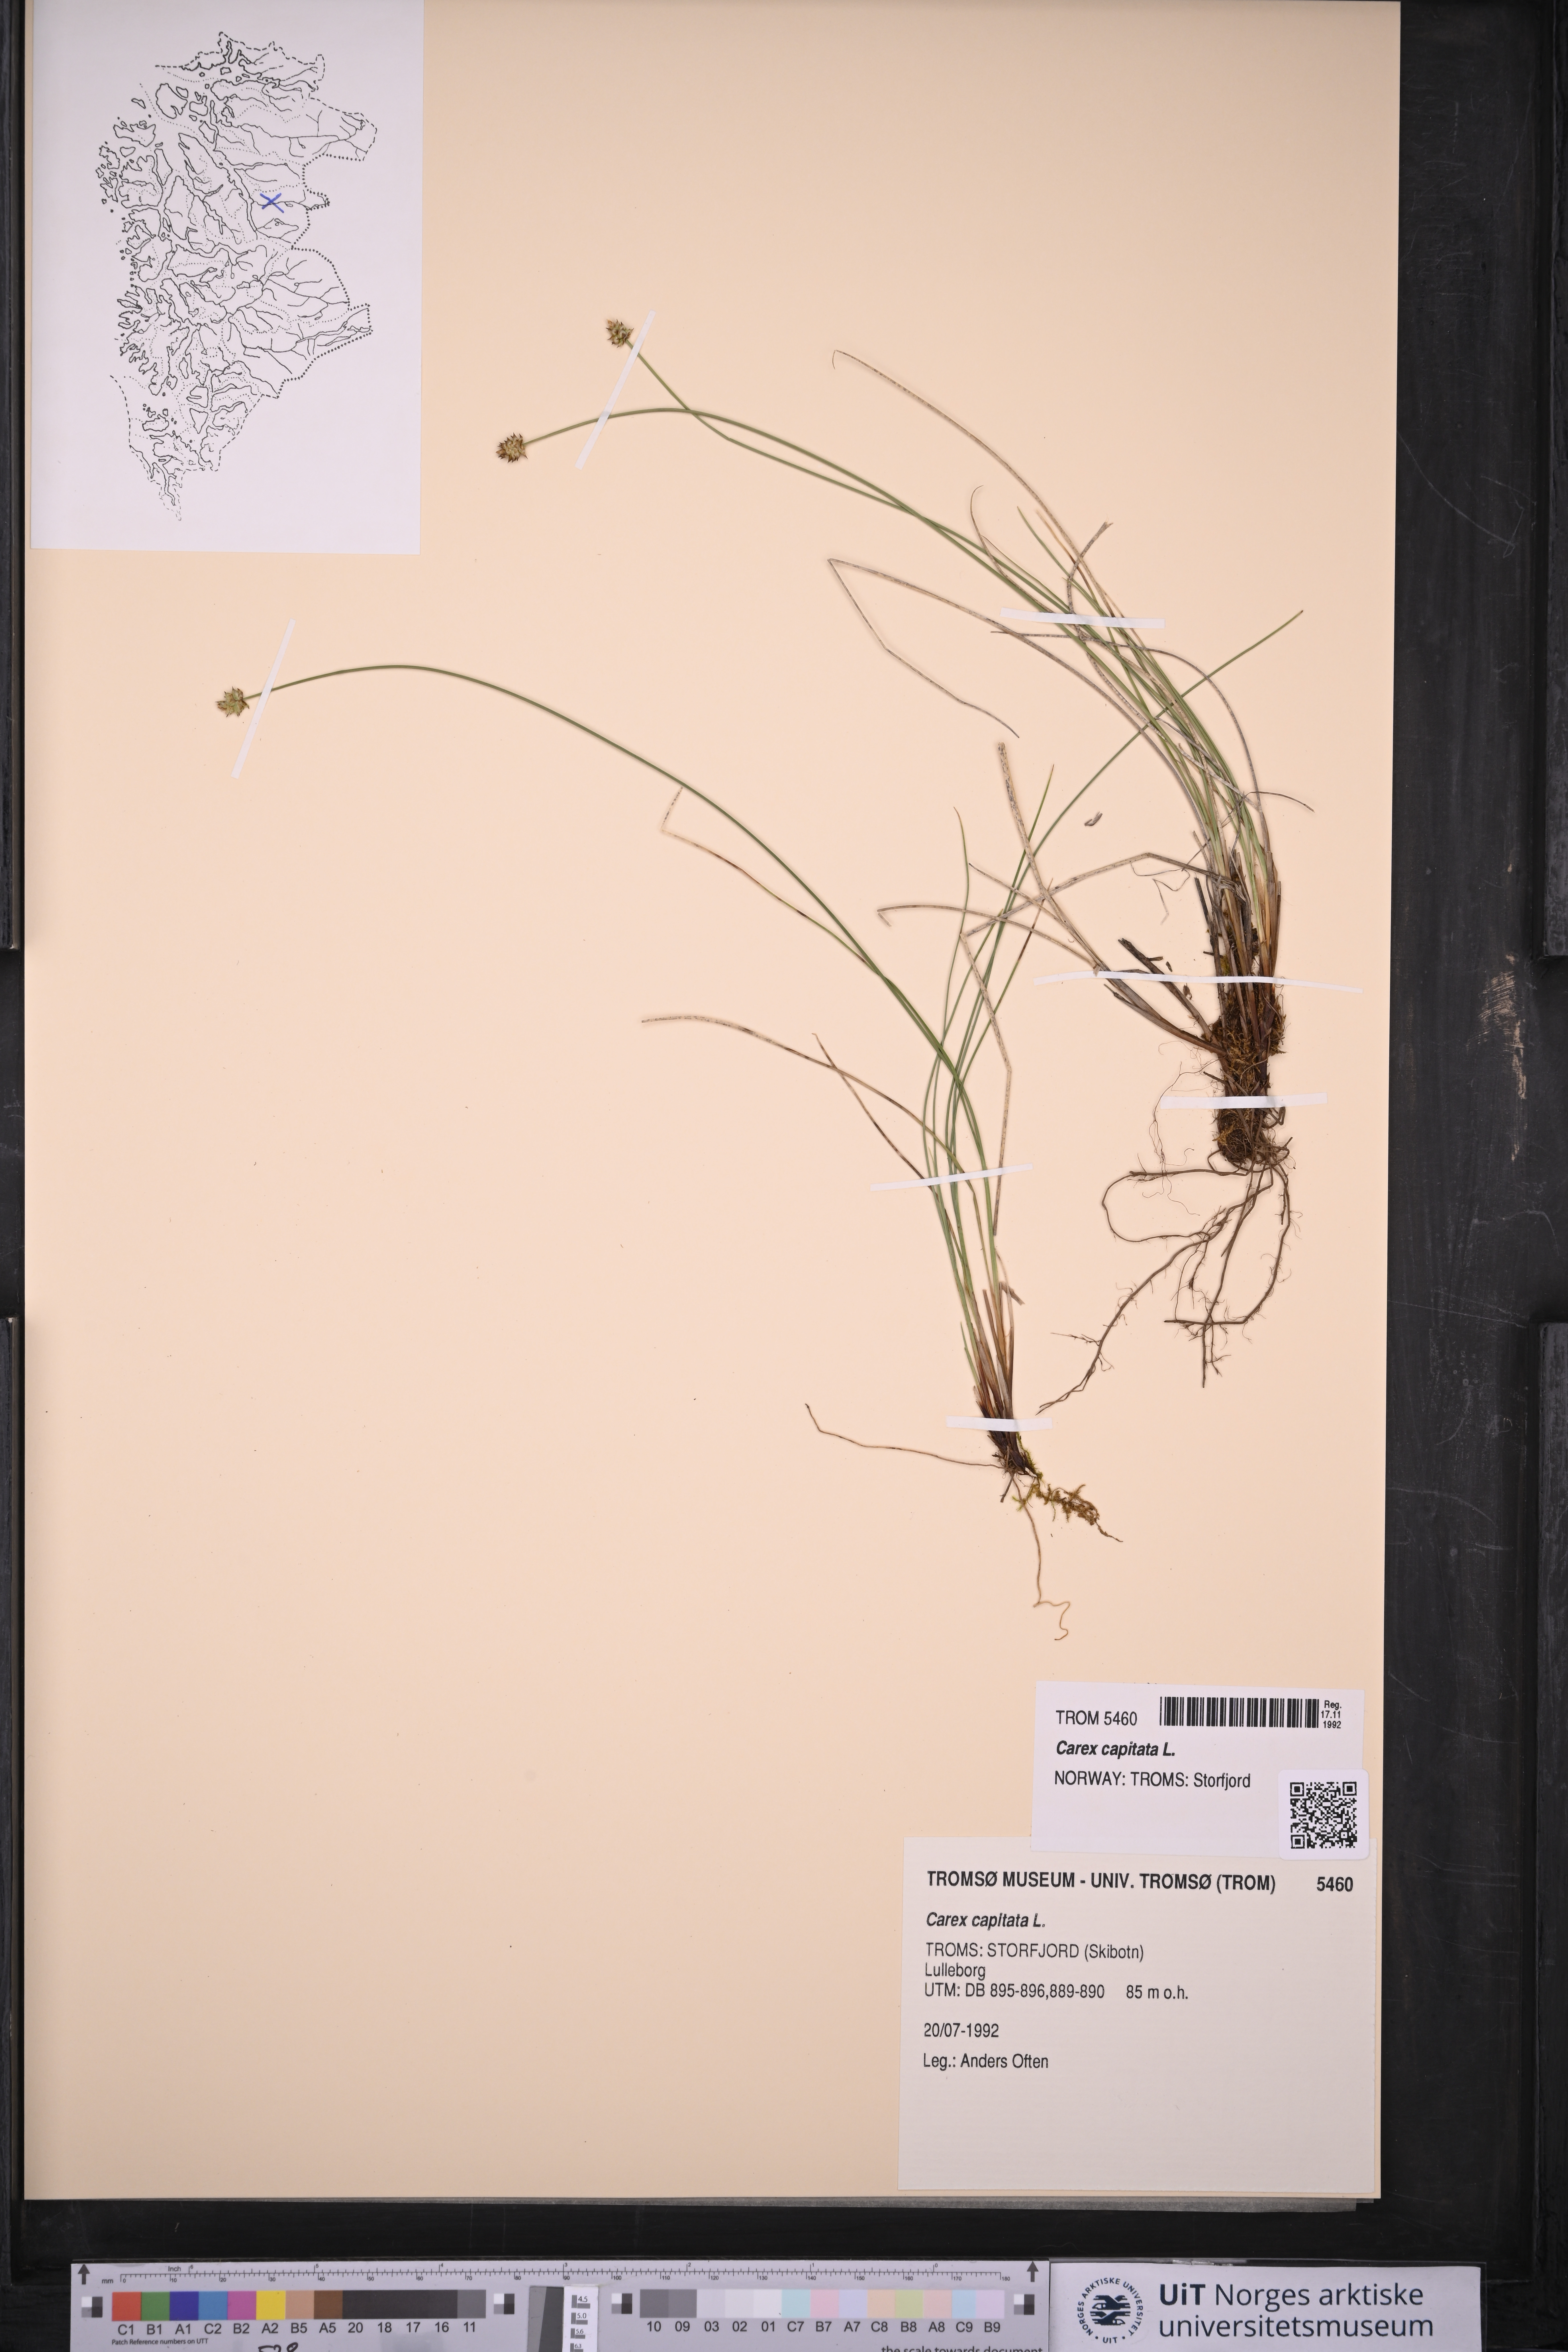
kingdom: Plantae
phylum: Tracheophyta
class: Liliopsida
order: Poales
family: Cyperaceae
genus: Carex
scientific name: Carex capitata
